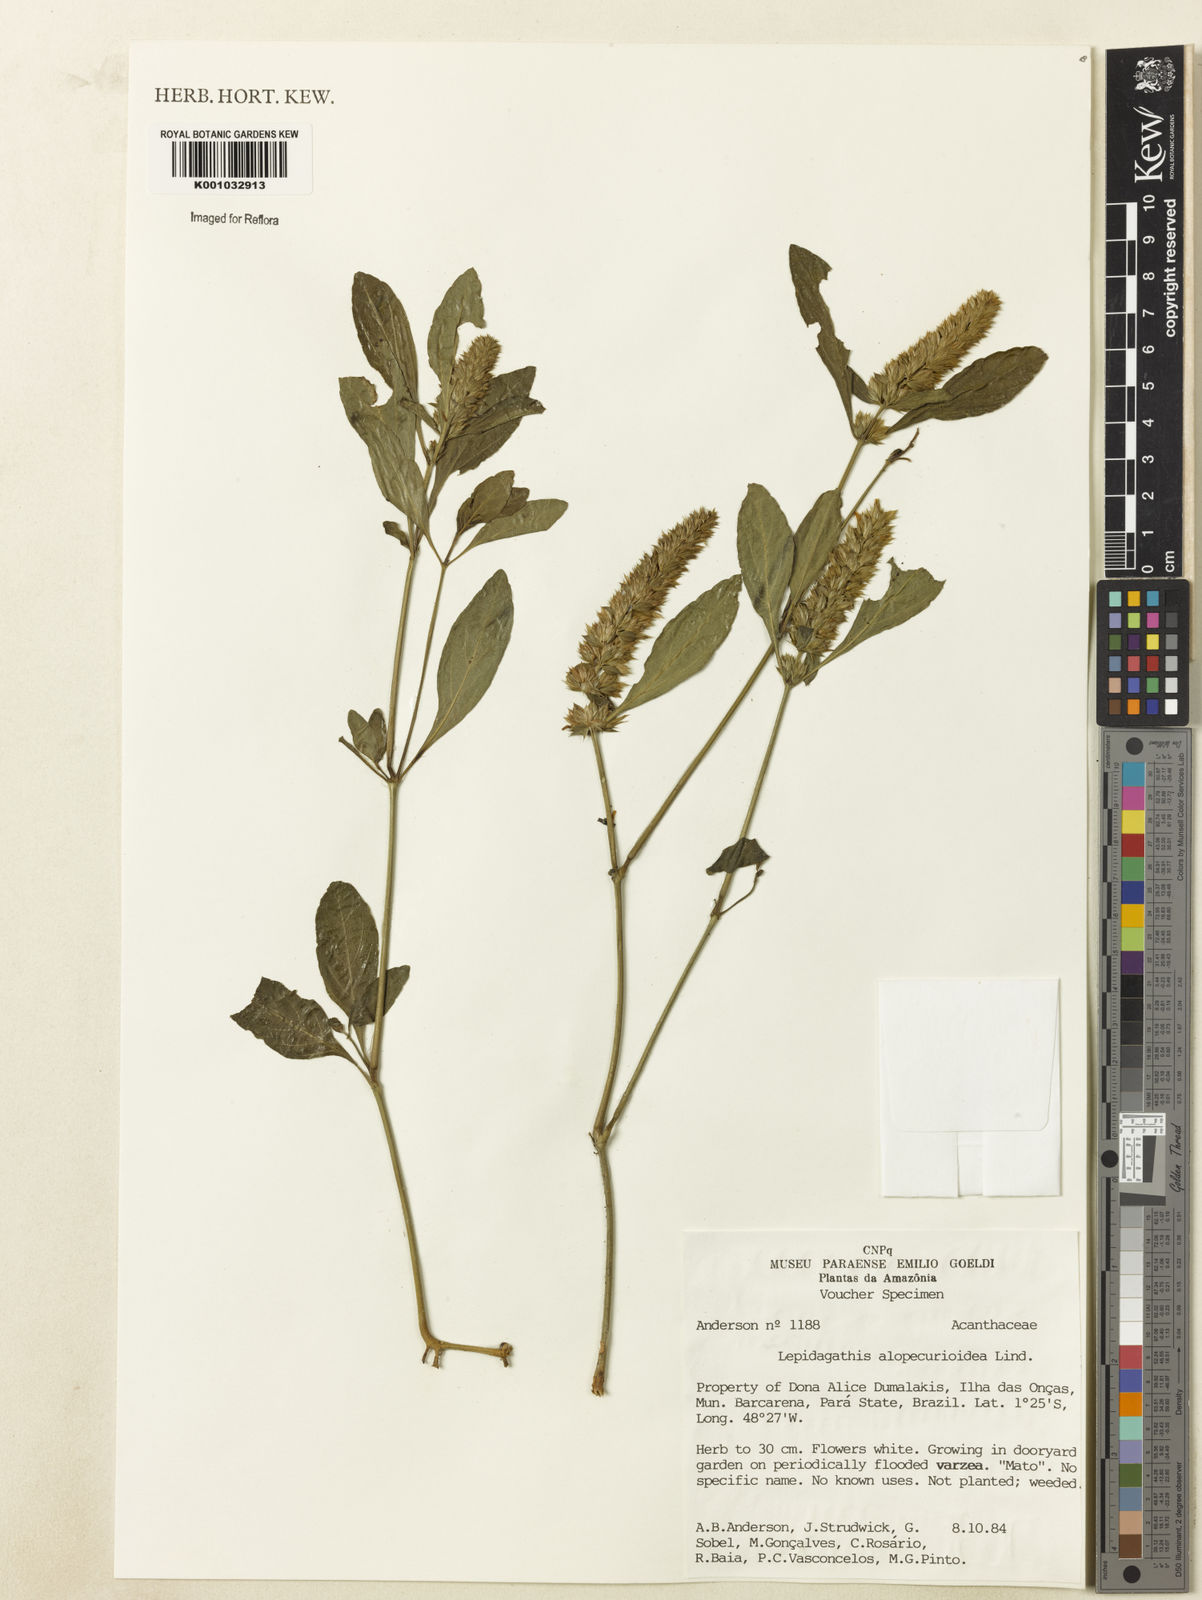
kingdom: Plantae
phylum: Tracheophyta
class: Magnoliopsida
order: Lamiales
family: Acanthaceae
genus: Lepidagathis
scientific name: Lepidagathis alopecuroidea
